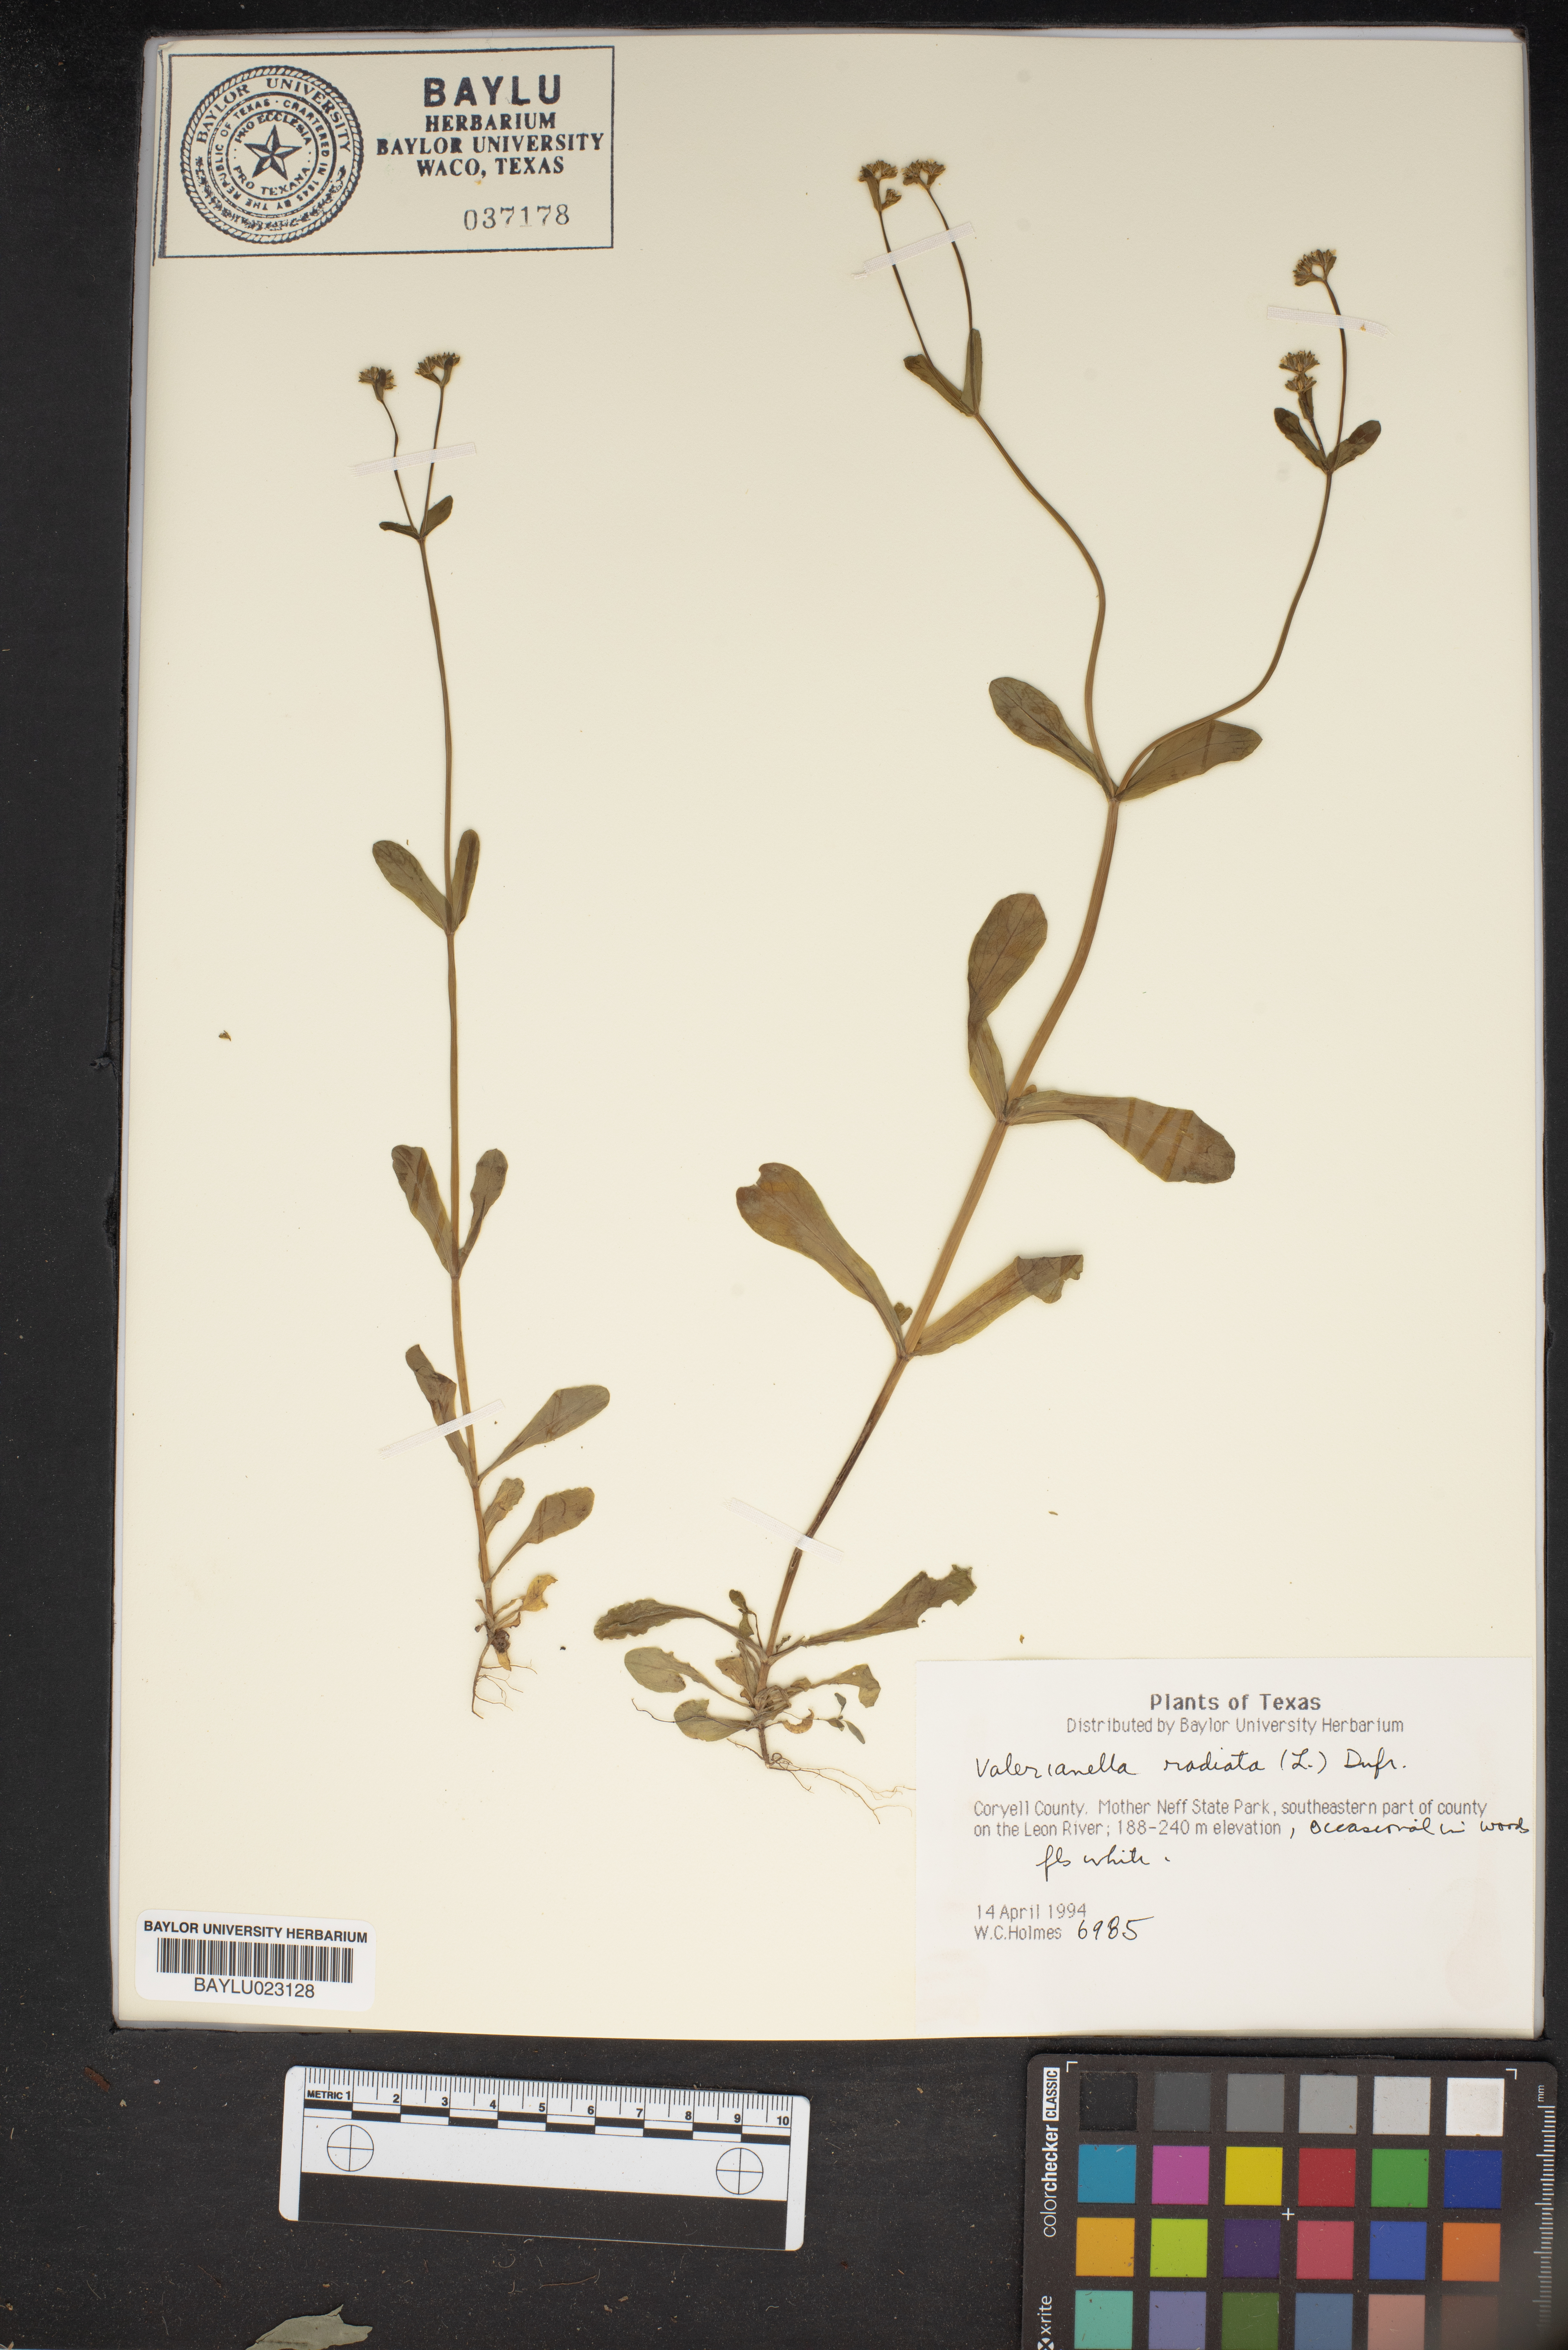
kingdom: Plantae
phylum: Tracheophyta
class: Magnoliopsida
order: Dipsacales
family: Caprifoliaceae
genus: Valerianella
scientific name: Valerianella radiata
